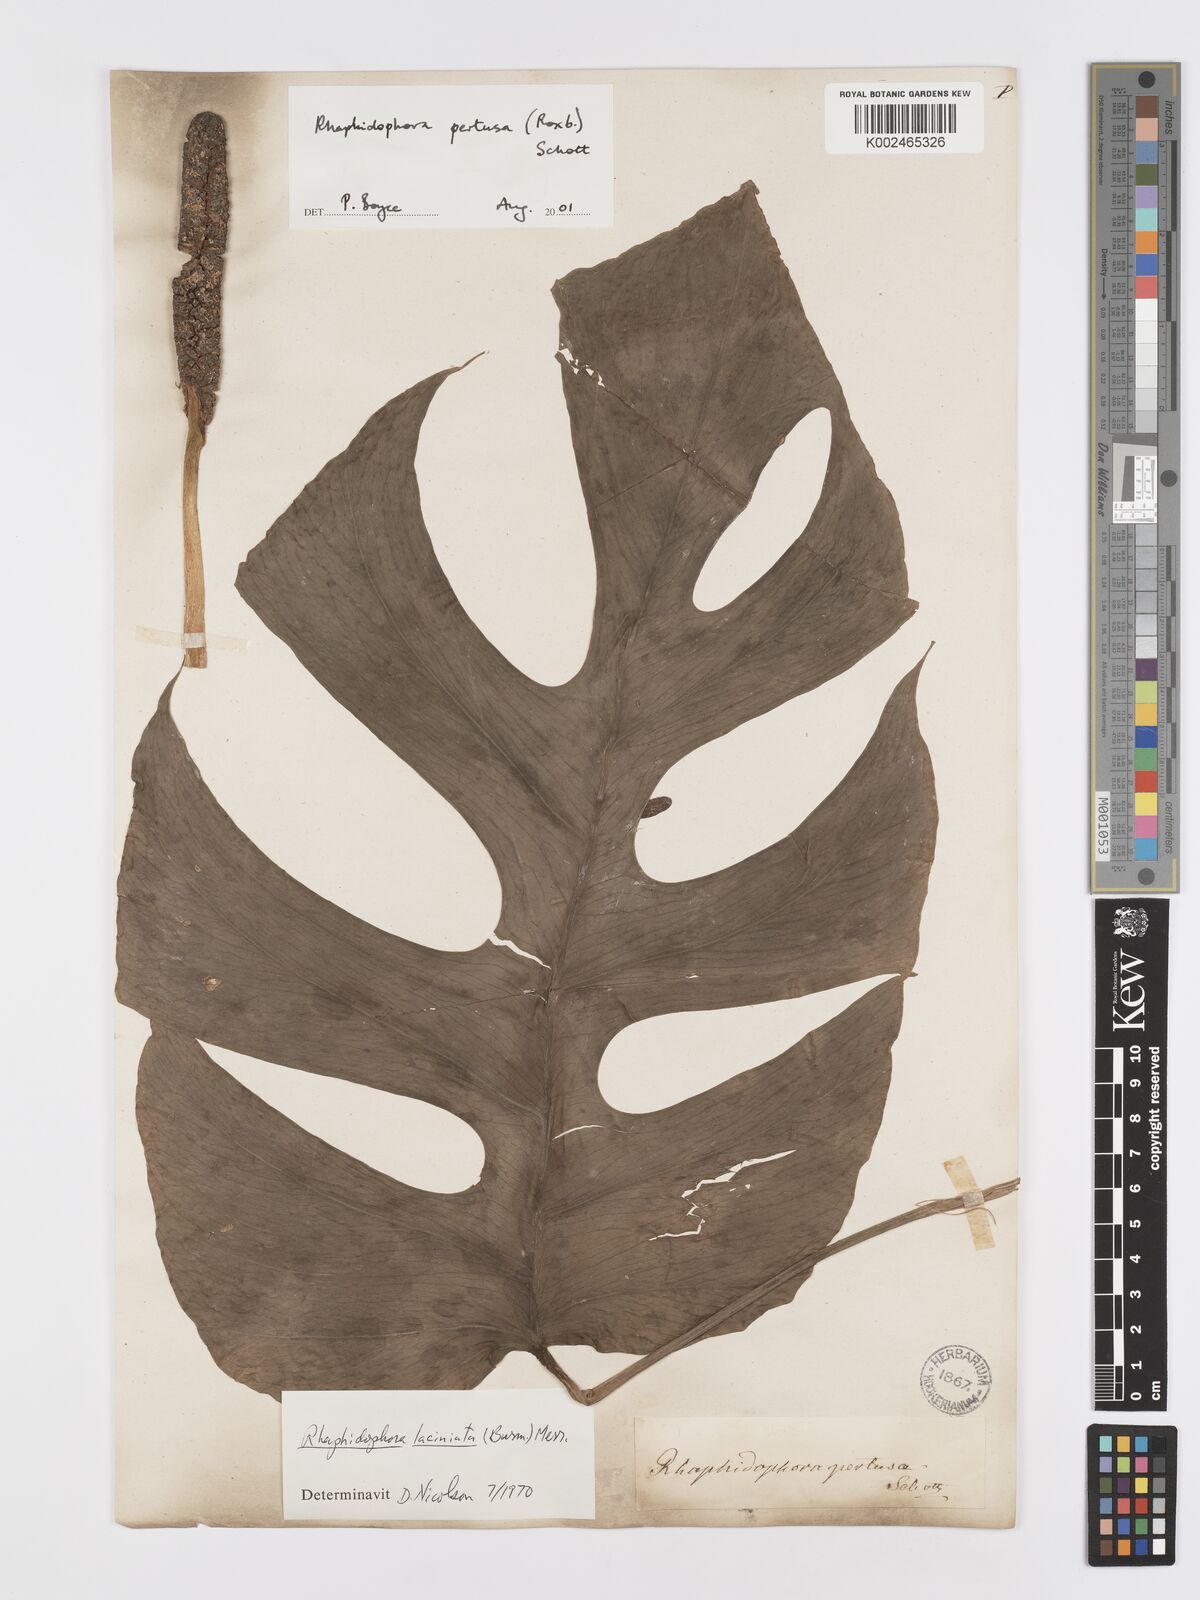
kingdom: Plantae
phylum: Tracheophyta
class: Liliopsida
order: Alismatales
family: Araceae
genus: Rhaphidophora
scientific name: Rhaphidophora pertusa
